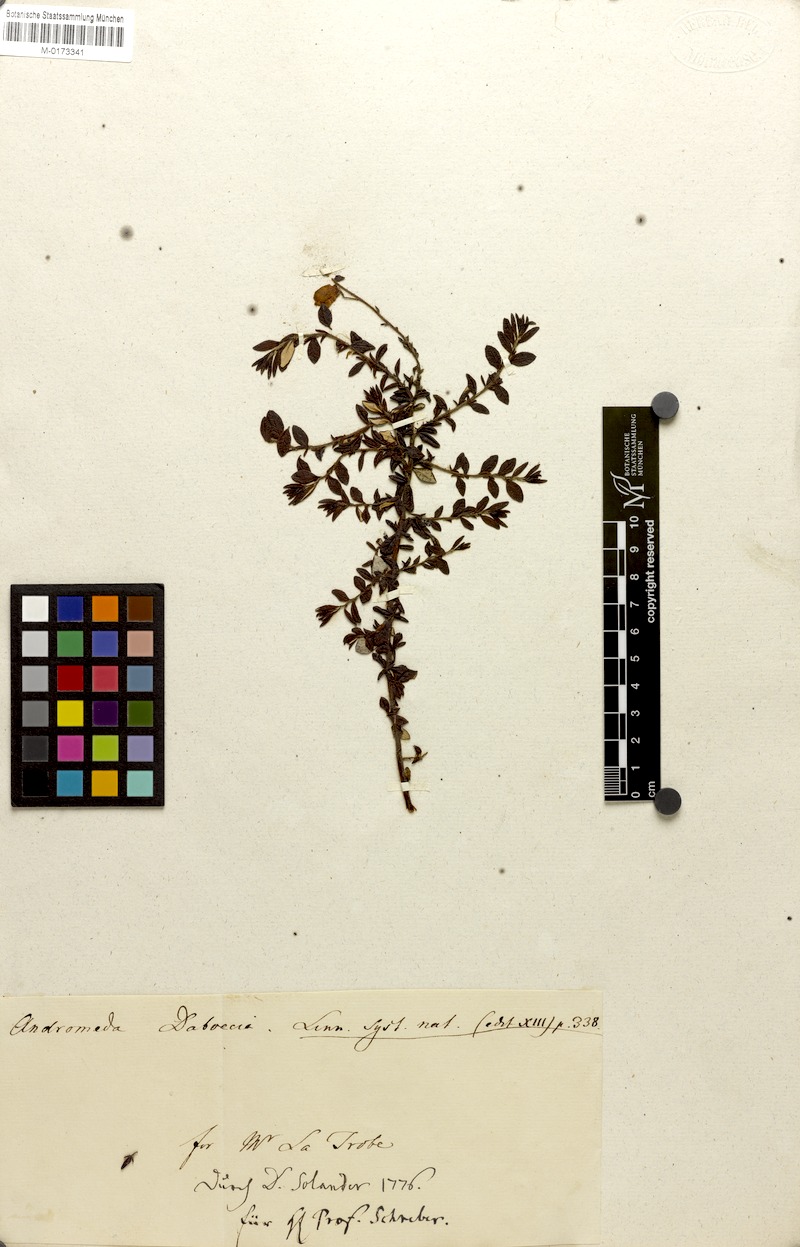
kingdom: Plantae
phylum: Tracheophyta
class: Magnoliopsida
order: Ericales
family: Ericaceae
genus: Daboecia
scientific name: Daboecia cantabrica
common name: St. dabeoc's-heath
